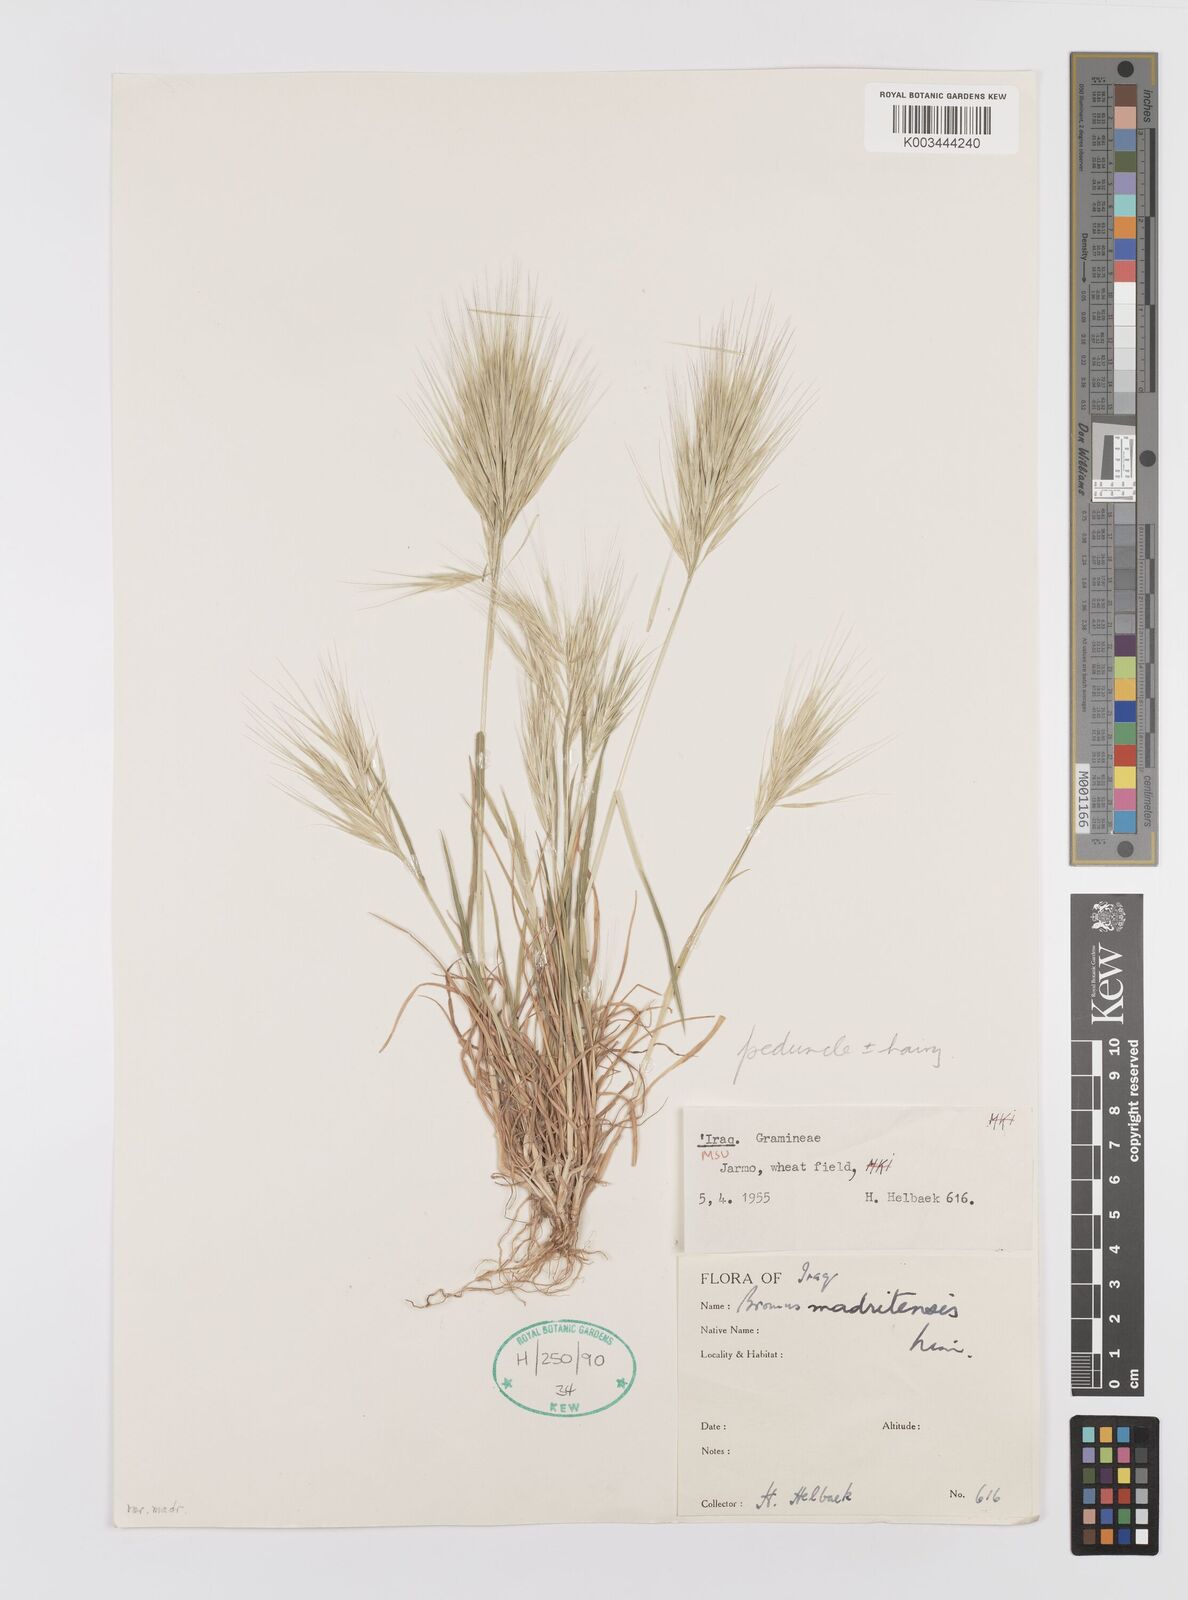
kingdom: Plantae
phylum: Tracheophyta
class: Liliopsida
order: Poales
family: Poaceae
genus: Bromus
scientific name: Bromus madritensis
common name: Compact brome
